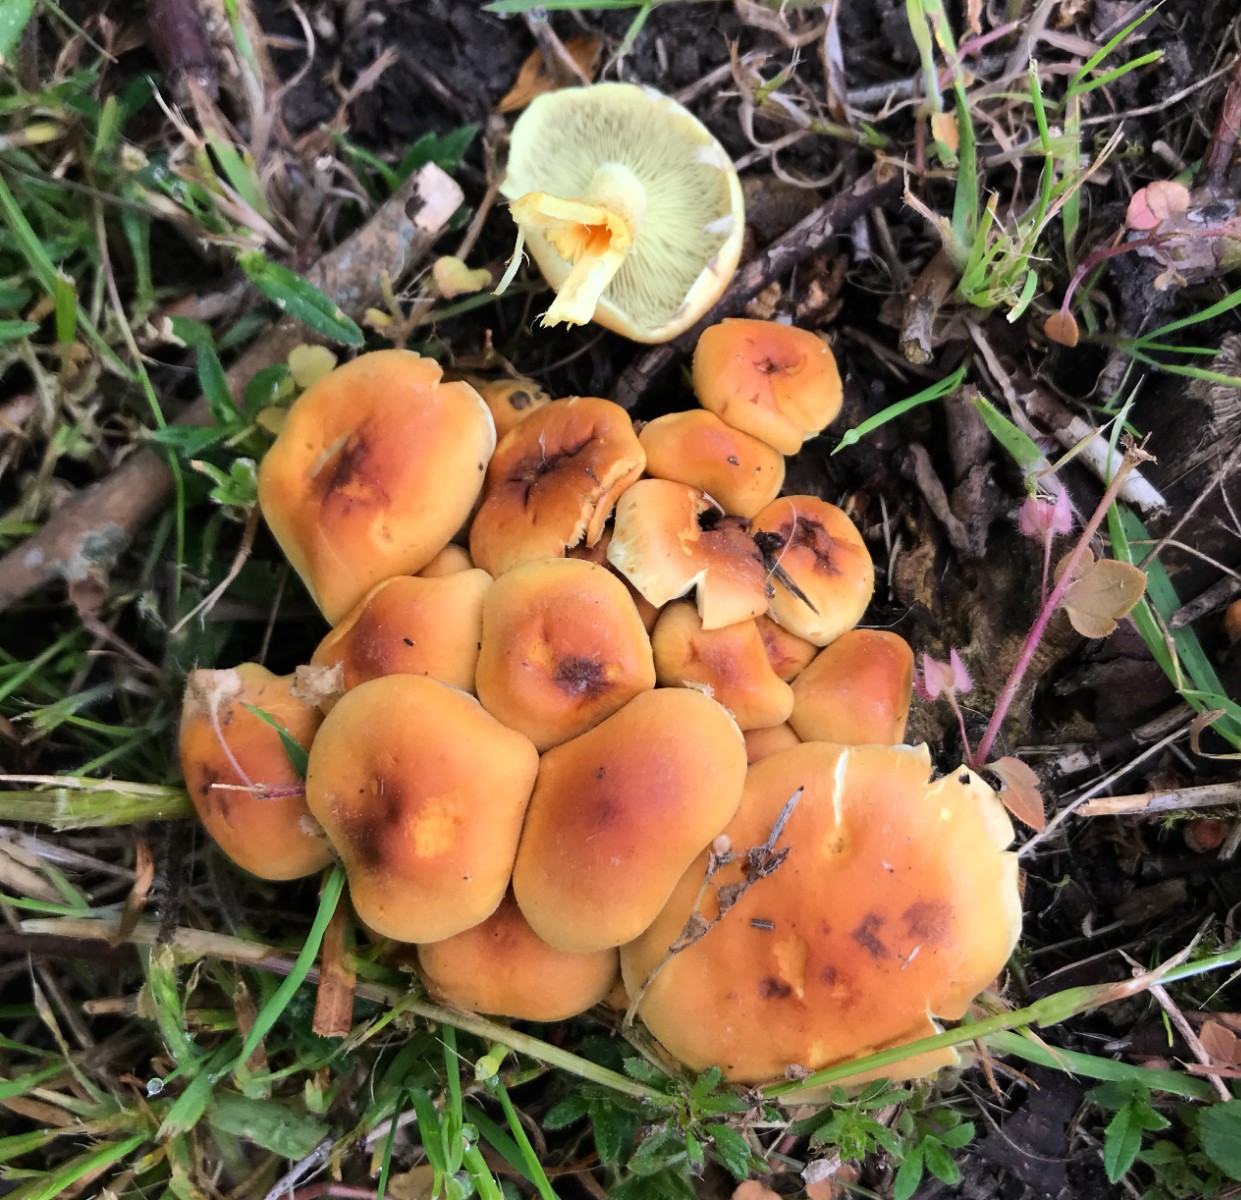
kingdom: Fungi
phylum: Basidiomycota
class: Agaricomycetes
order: Agaricales
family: Strophariaceae
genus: Hypholoma
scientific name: Hypholoma fasciculare
